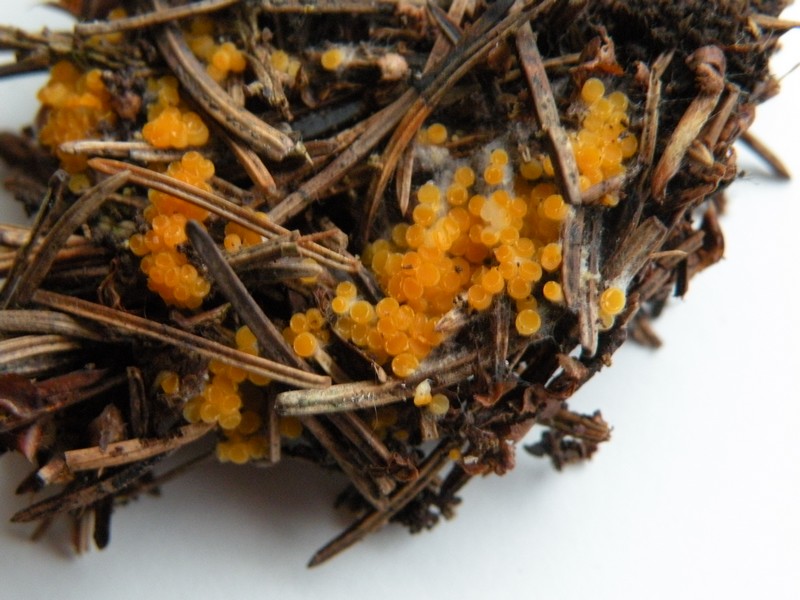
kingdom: Fungi
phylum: Ascomycota
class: Pezizomycetes
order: Pezizales
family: Pyronemataceae
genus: Byssonectria
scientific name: Byssonectria
